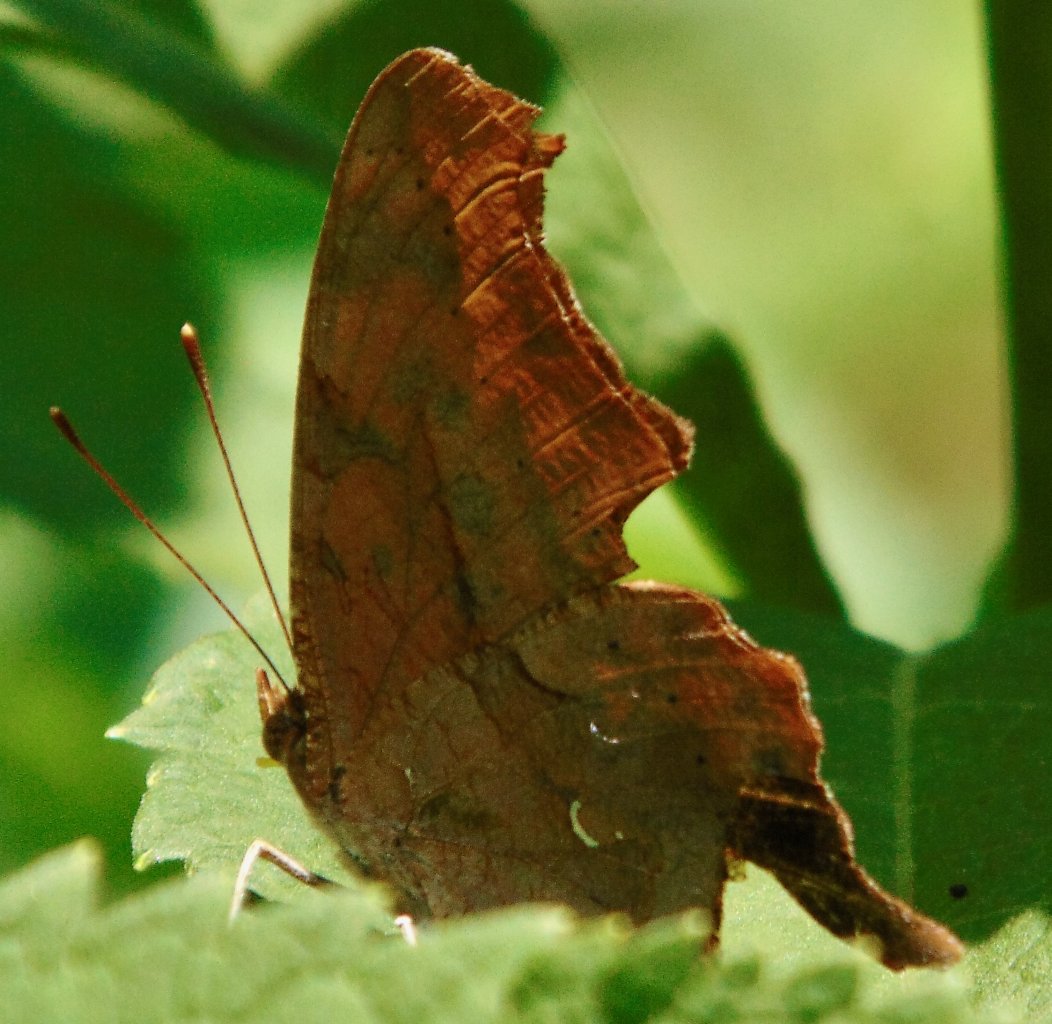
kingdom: Animalia
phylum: Arthropoda
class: Insecta
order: Lepidoptera
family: Nymphalidae
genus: Polygonia
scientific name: Polygonia interrogationis
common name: Question Mark
